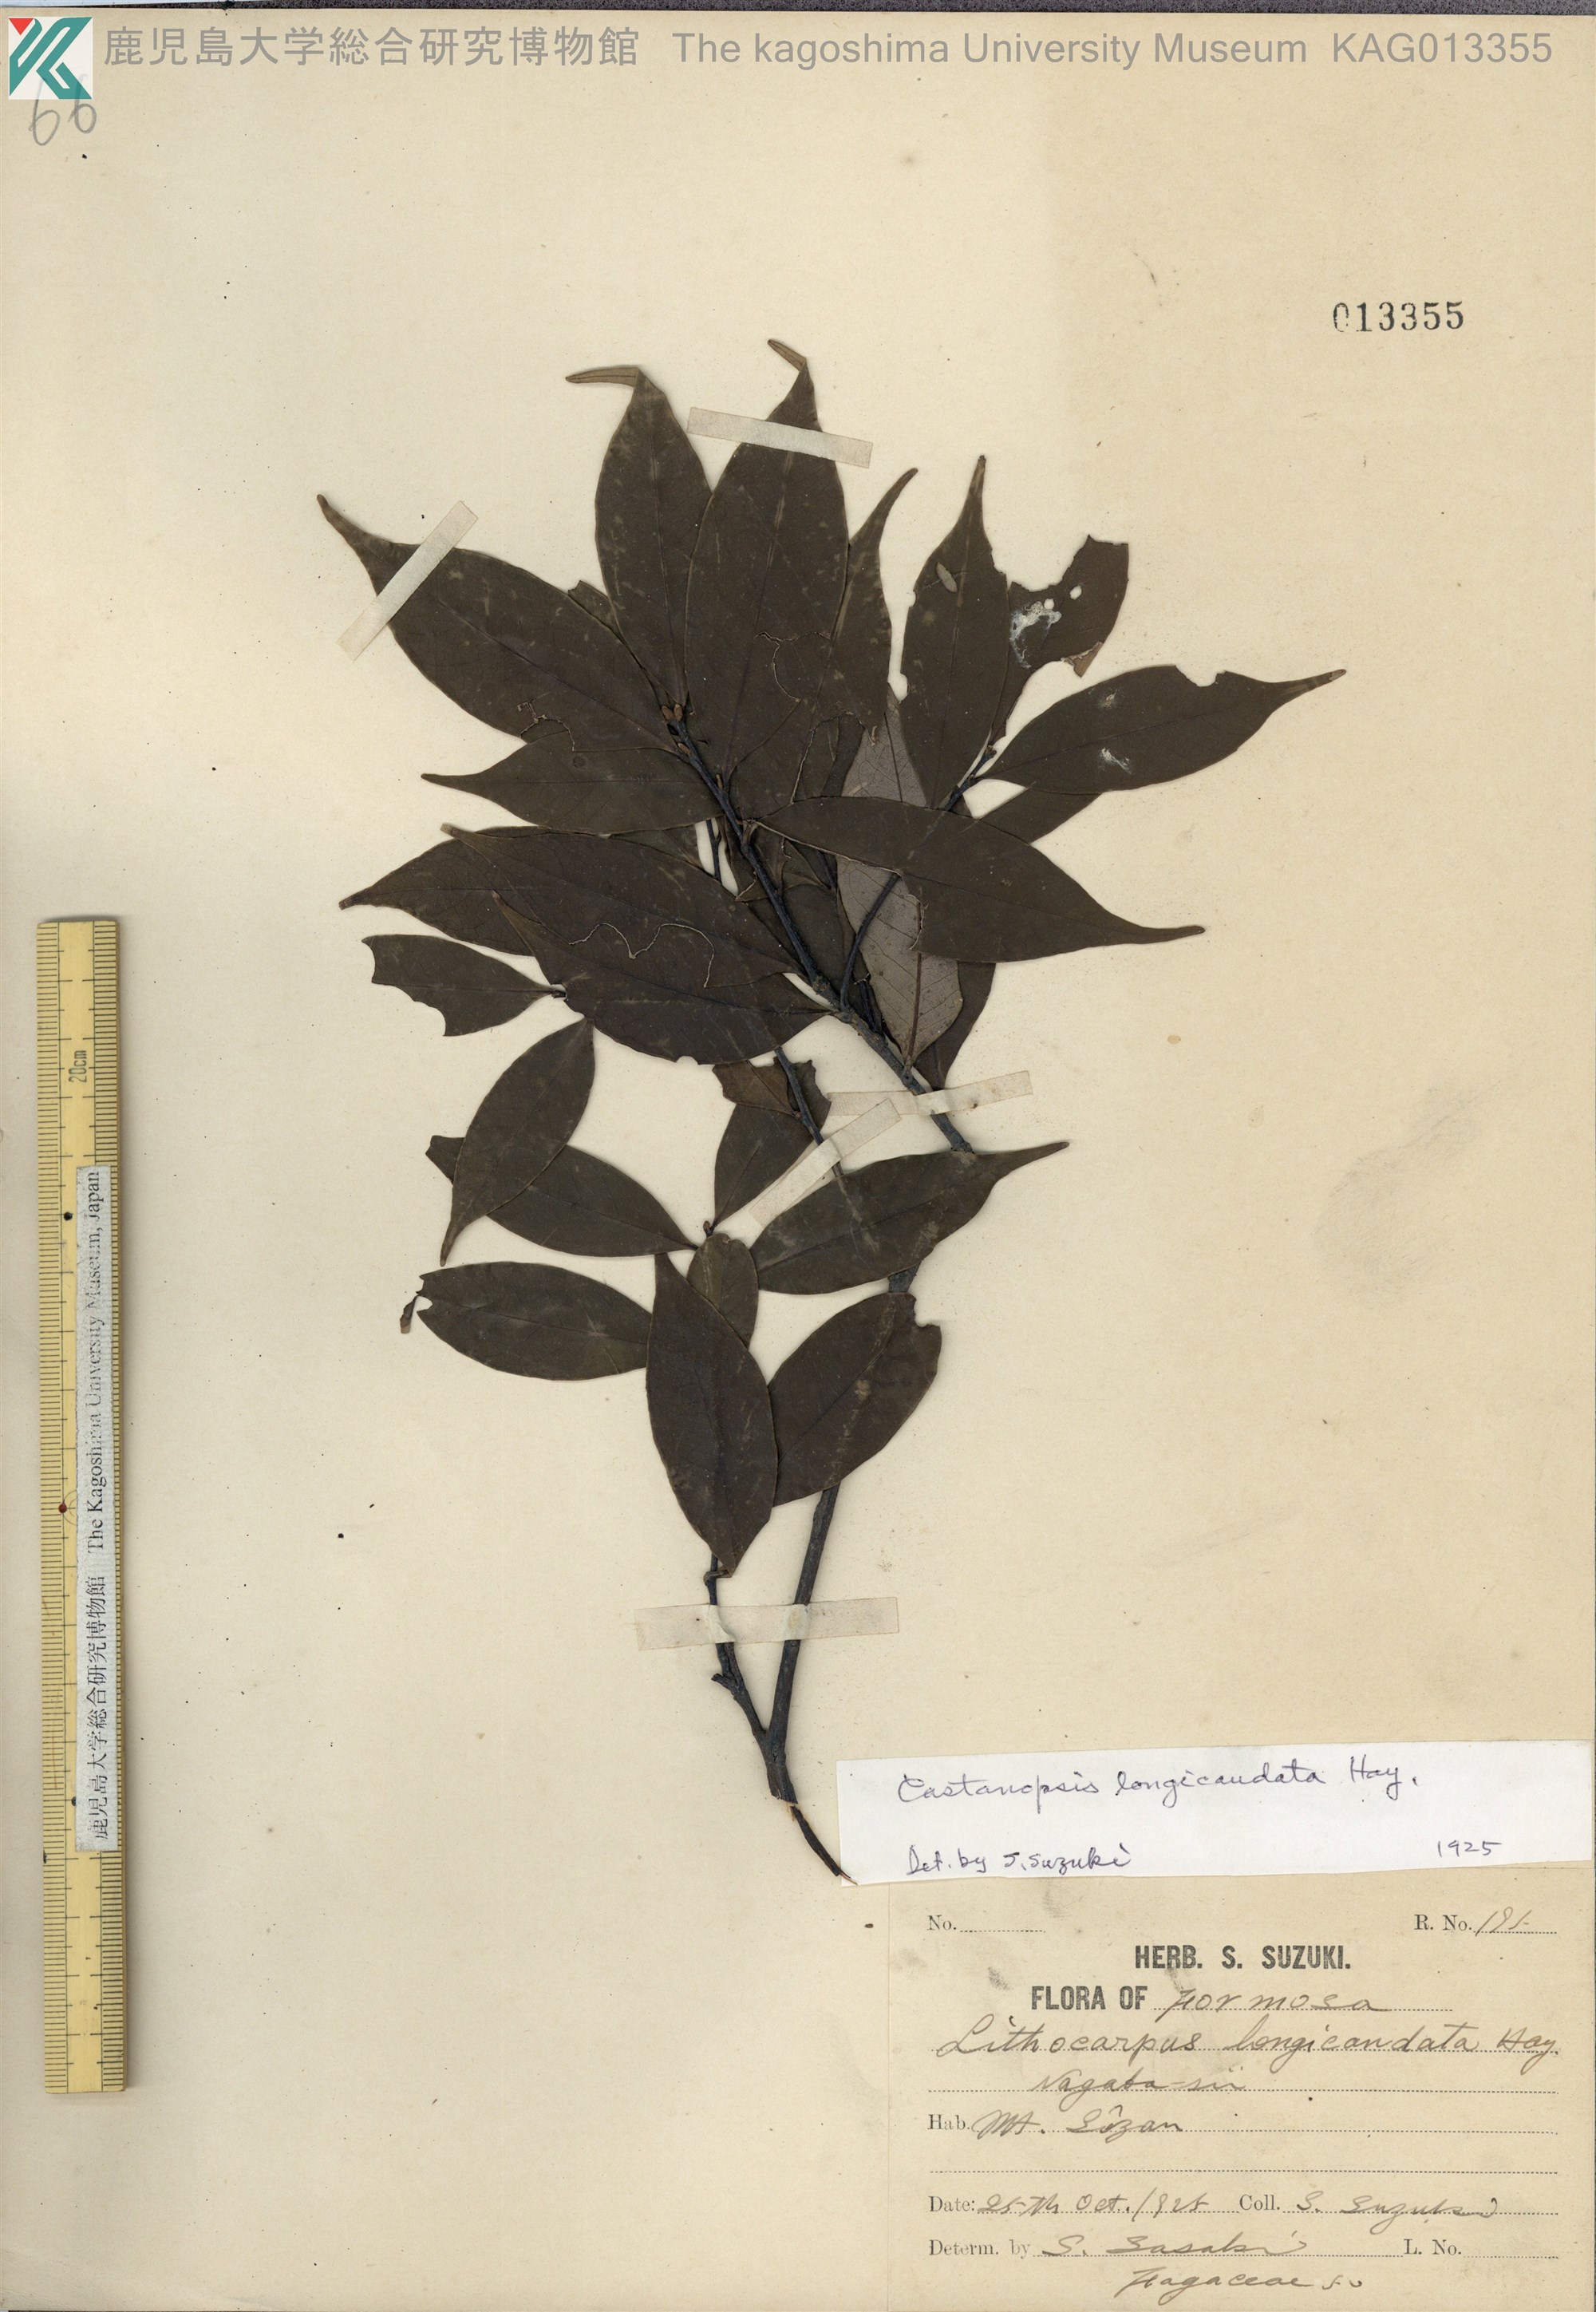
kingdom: Plantae
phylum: Tracheophyta
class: Magnoliopsida
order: Fagales
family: Fagaceae
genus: Castanopsis
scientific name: Castanopsis carlesii
